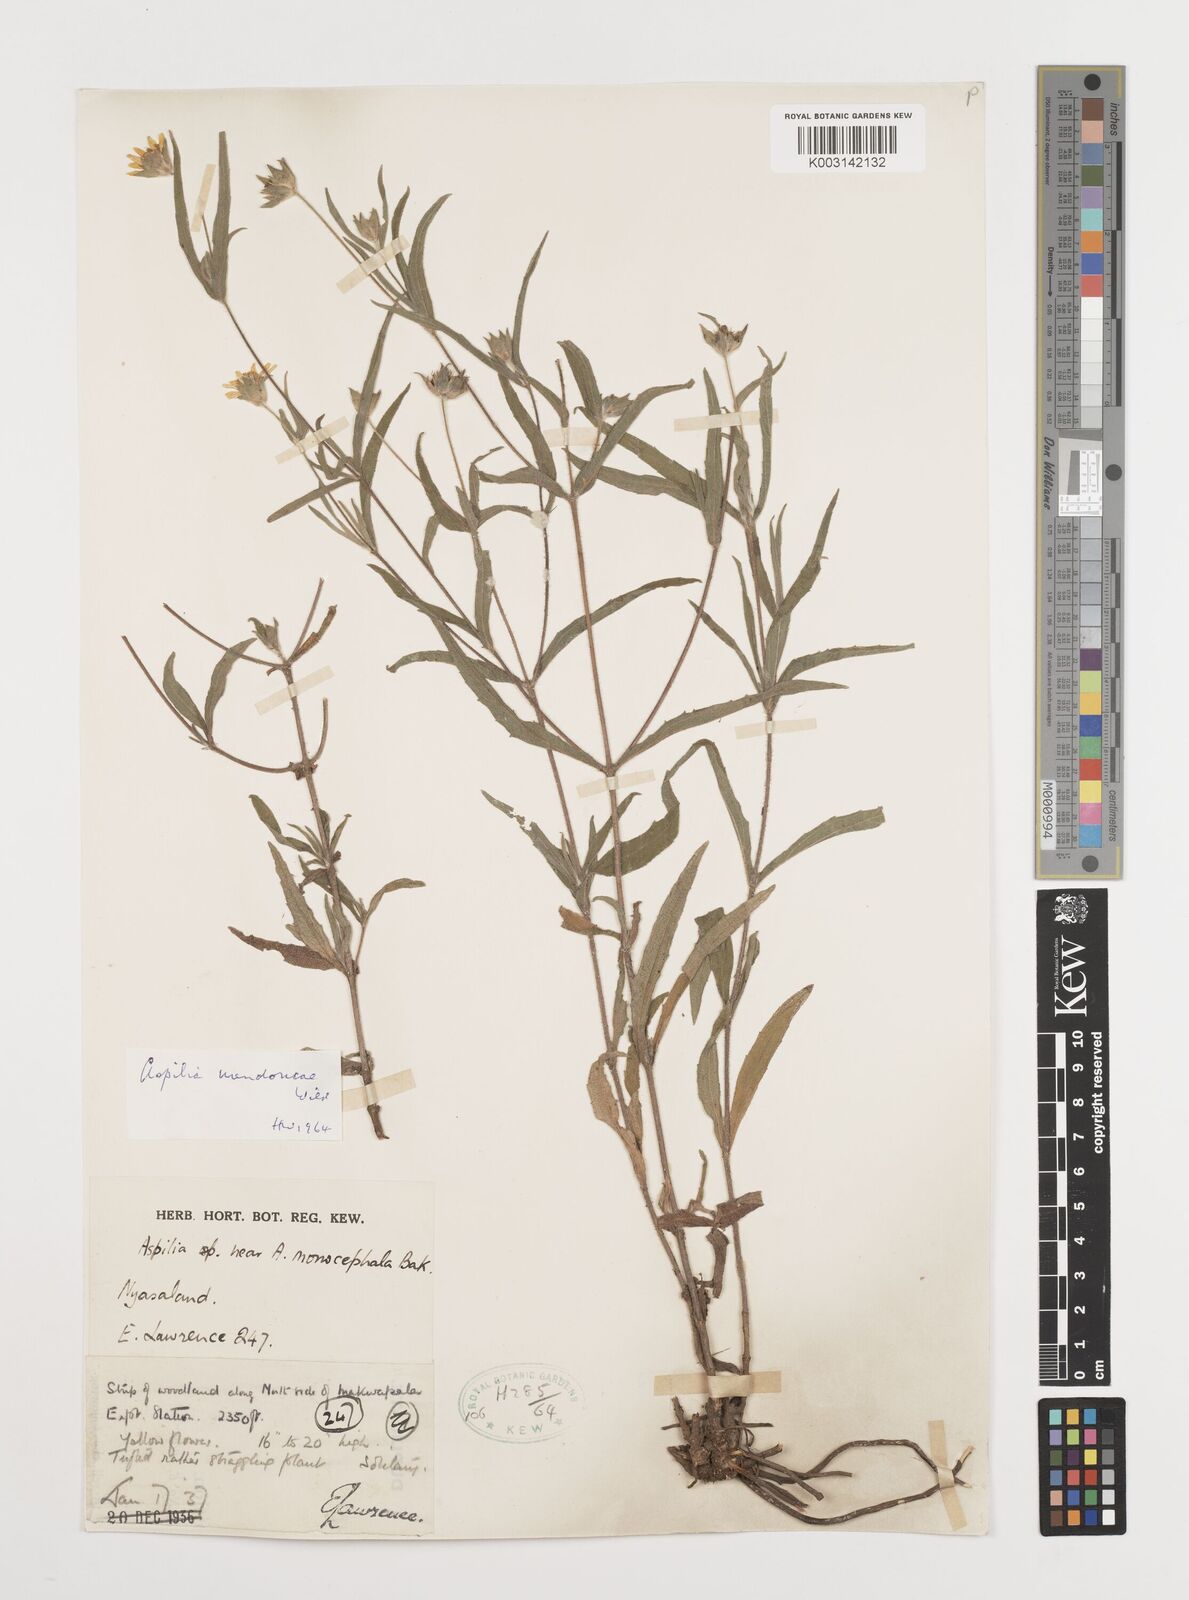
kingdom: Plantae
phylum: Tracheophyta
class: Magnoliopsida
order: Asterales
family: Asteraceae
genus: Aspilia
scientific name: Aspilia mendoncae
